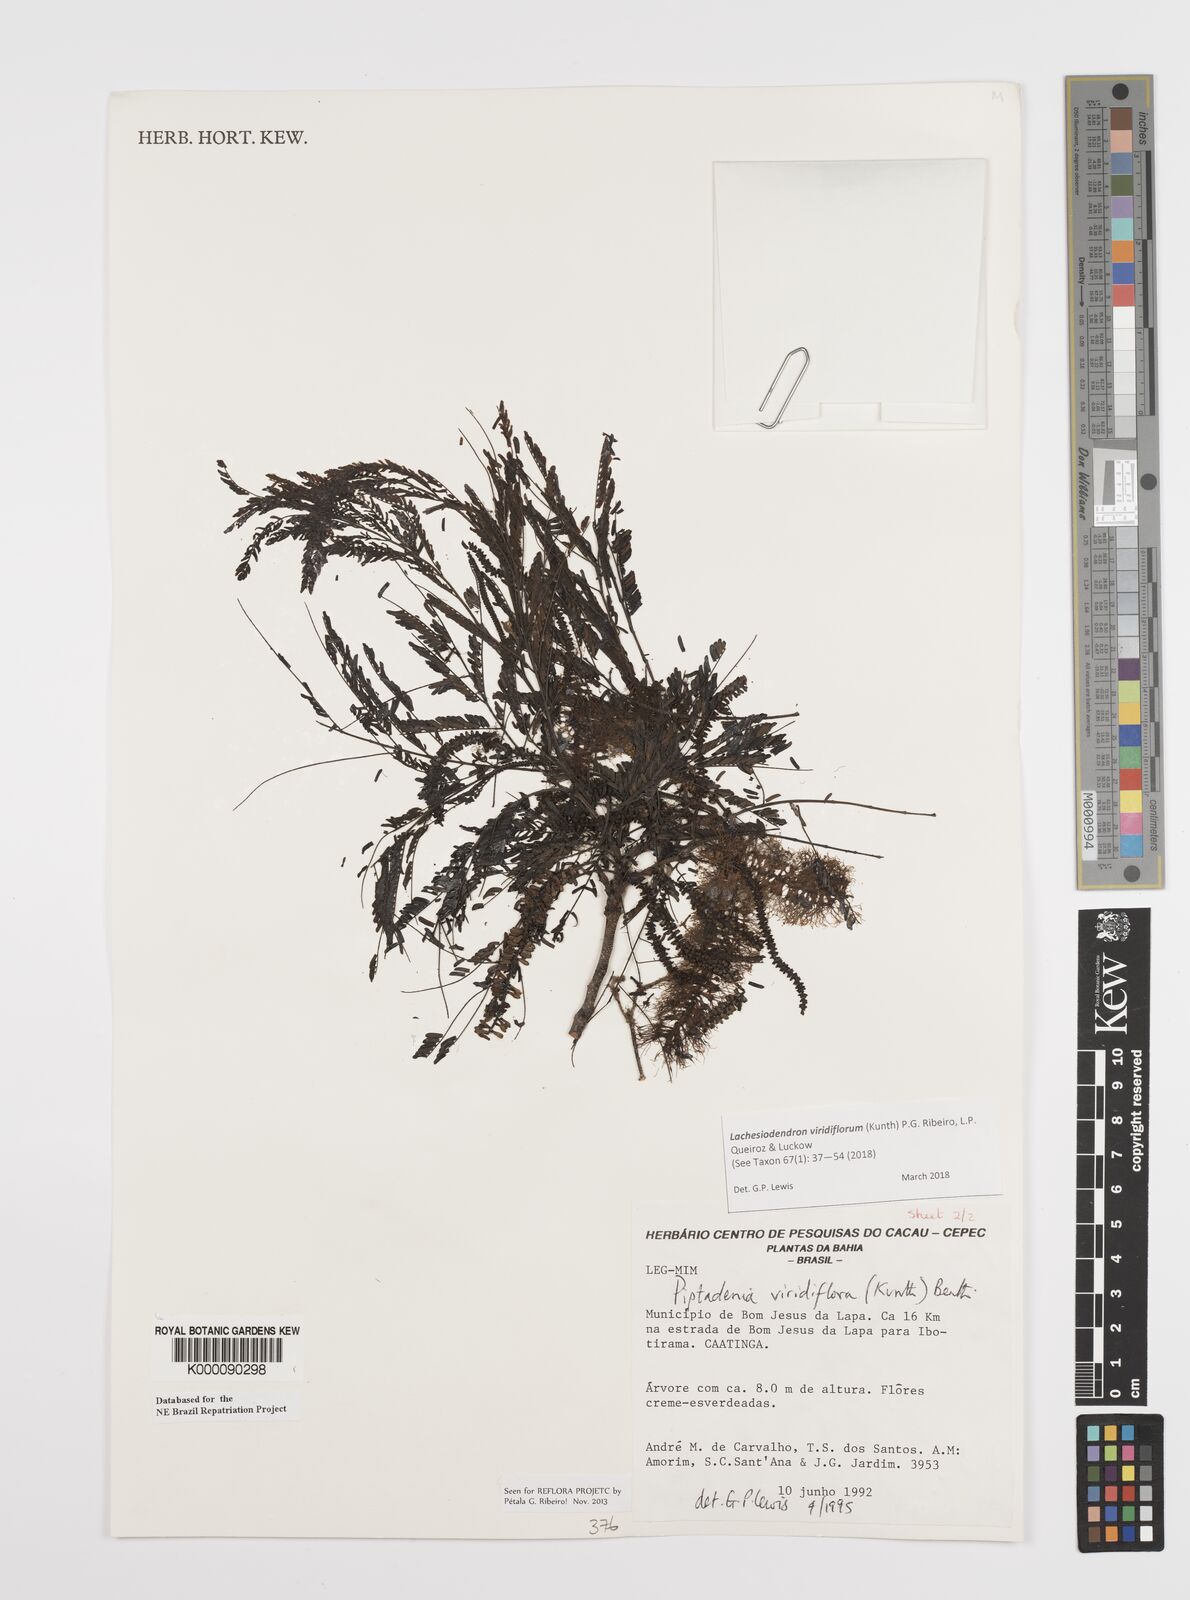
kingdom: Plantae
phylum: Tracheophyta
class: Magnoliopsida
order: Fabales
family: Fabaceae
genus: Lachesiodendron
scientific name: Lachesiodendron viridiflorum
